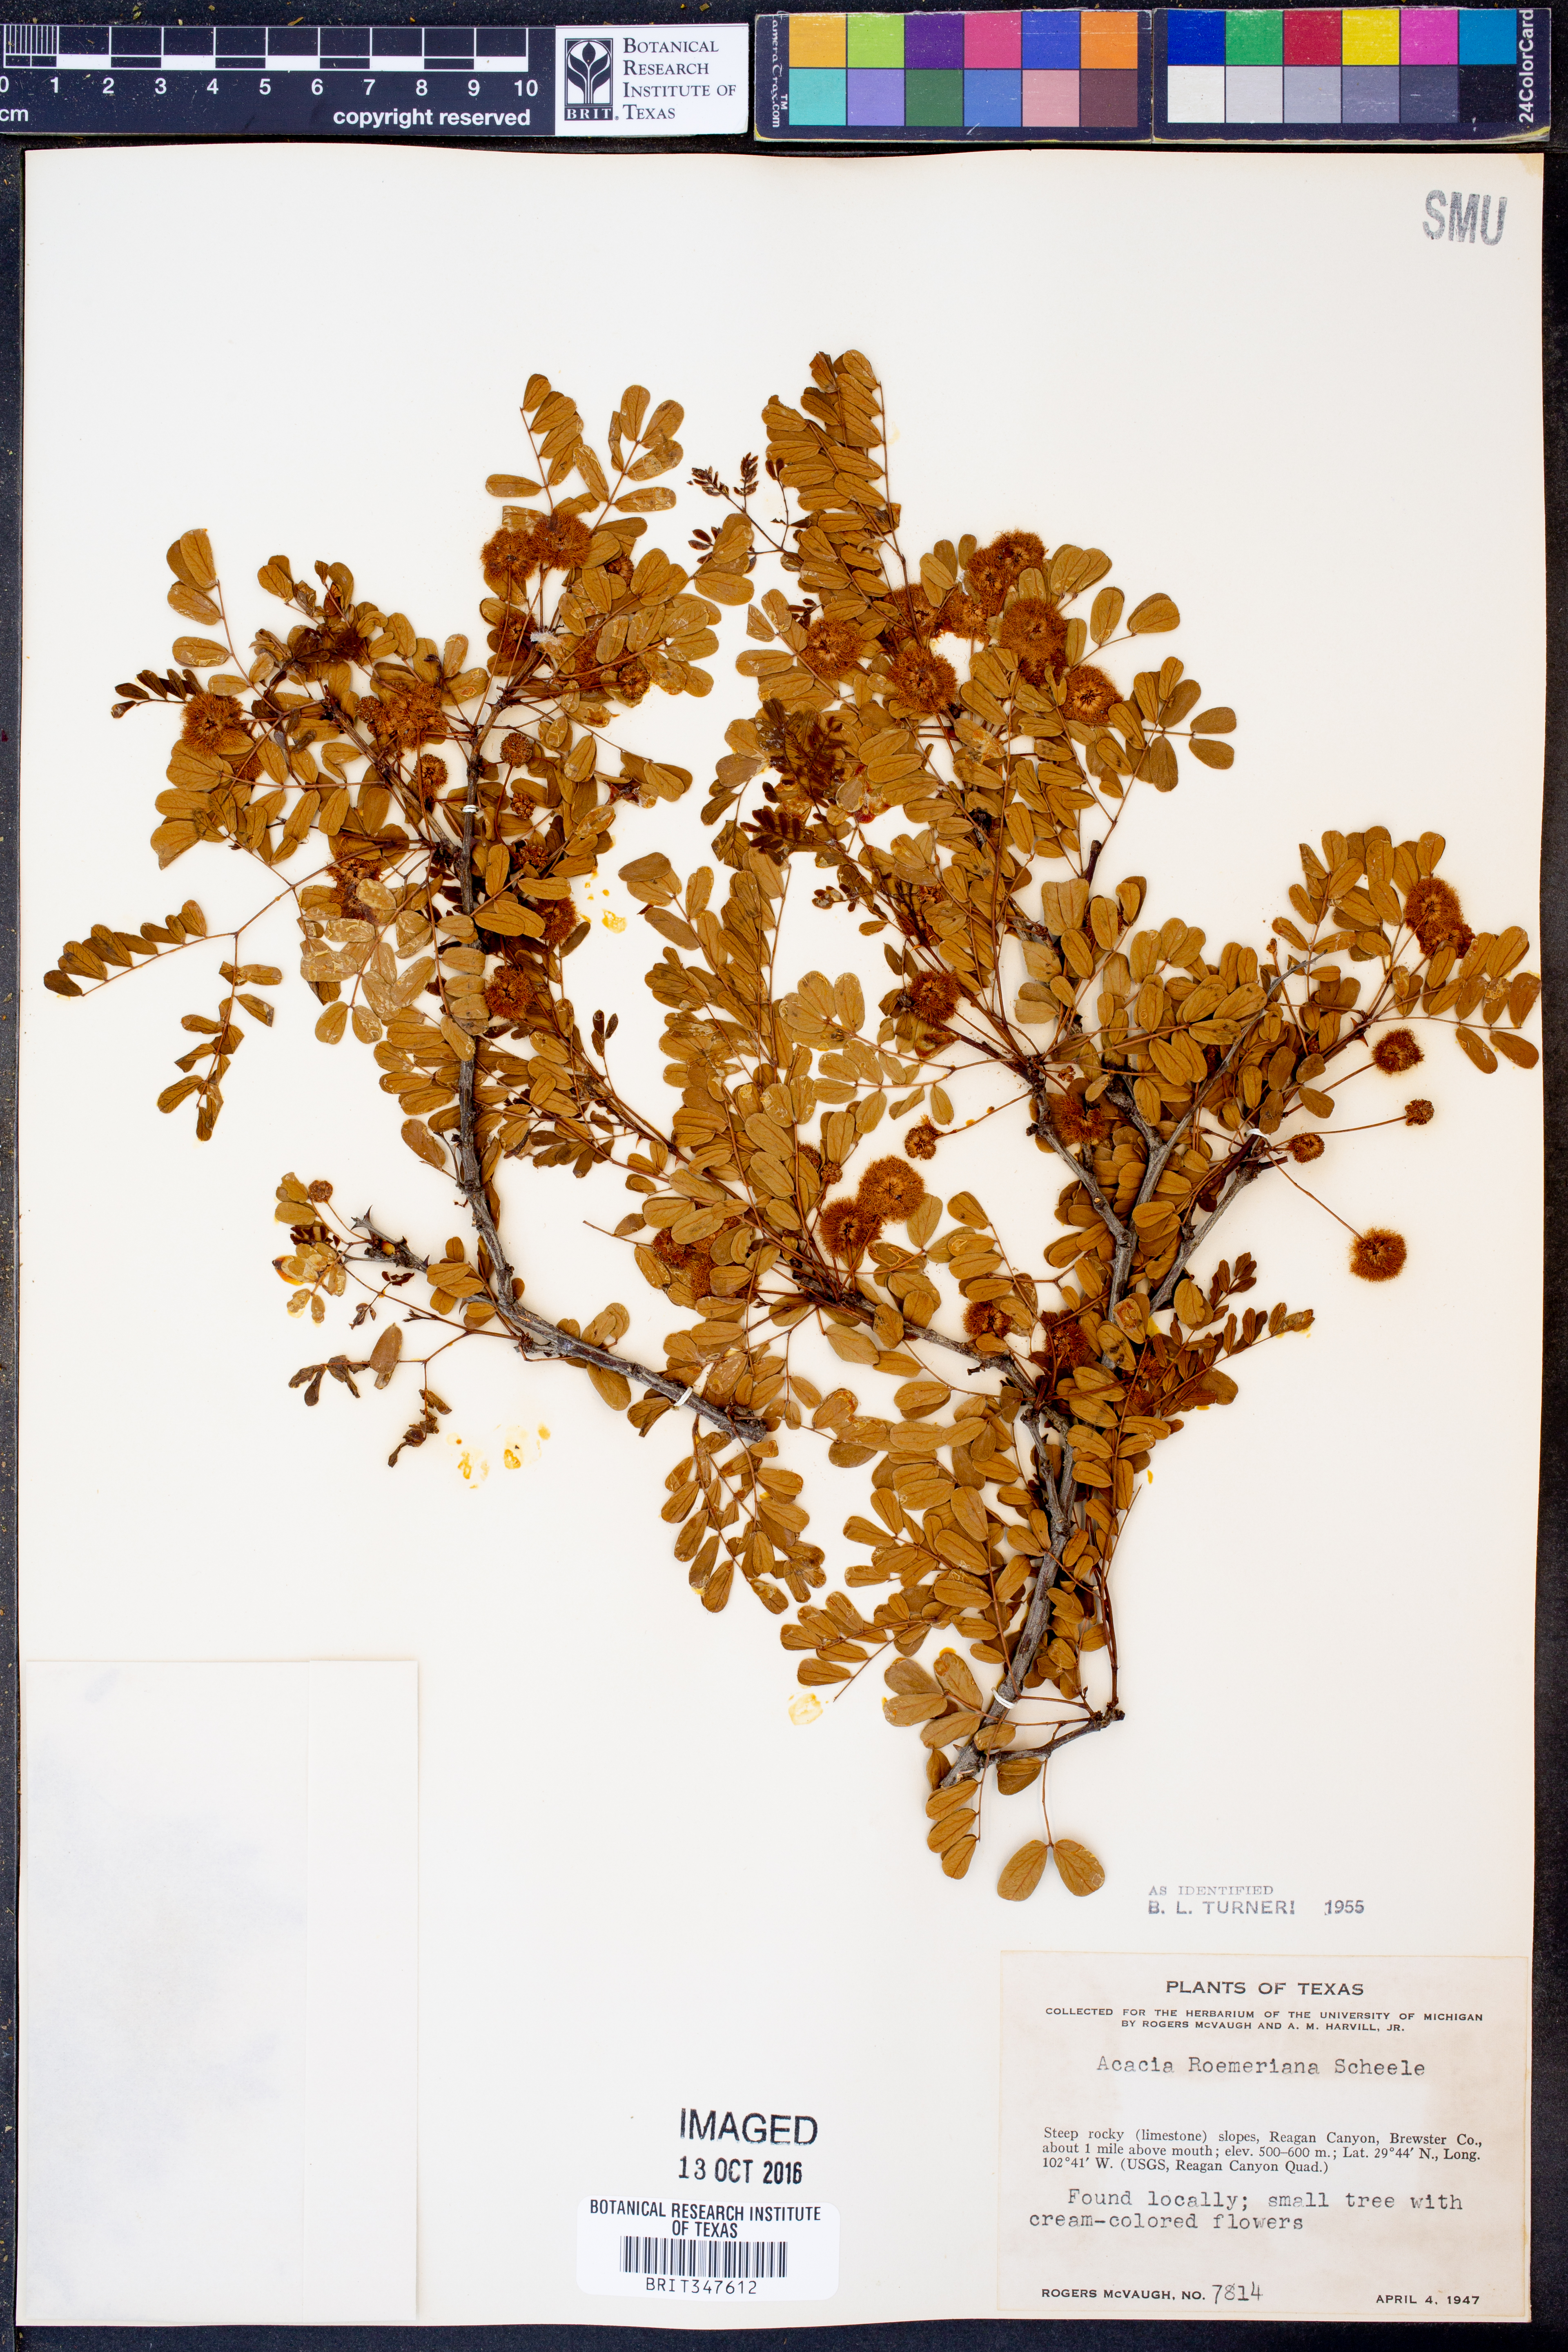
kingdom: Plantae
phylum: Tracheophyta
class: Magnoliopsida
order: Fabales
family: Fabaceae
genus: Senegalia
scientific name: Senegalia roemeriana
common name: Roemer's acacia
